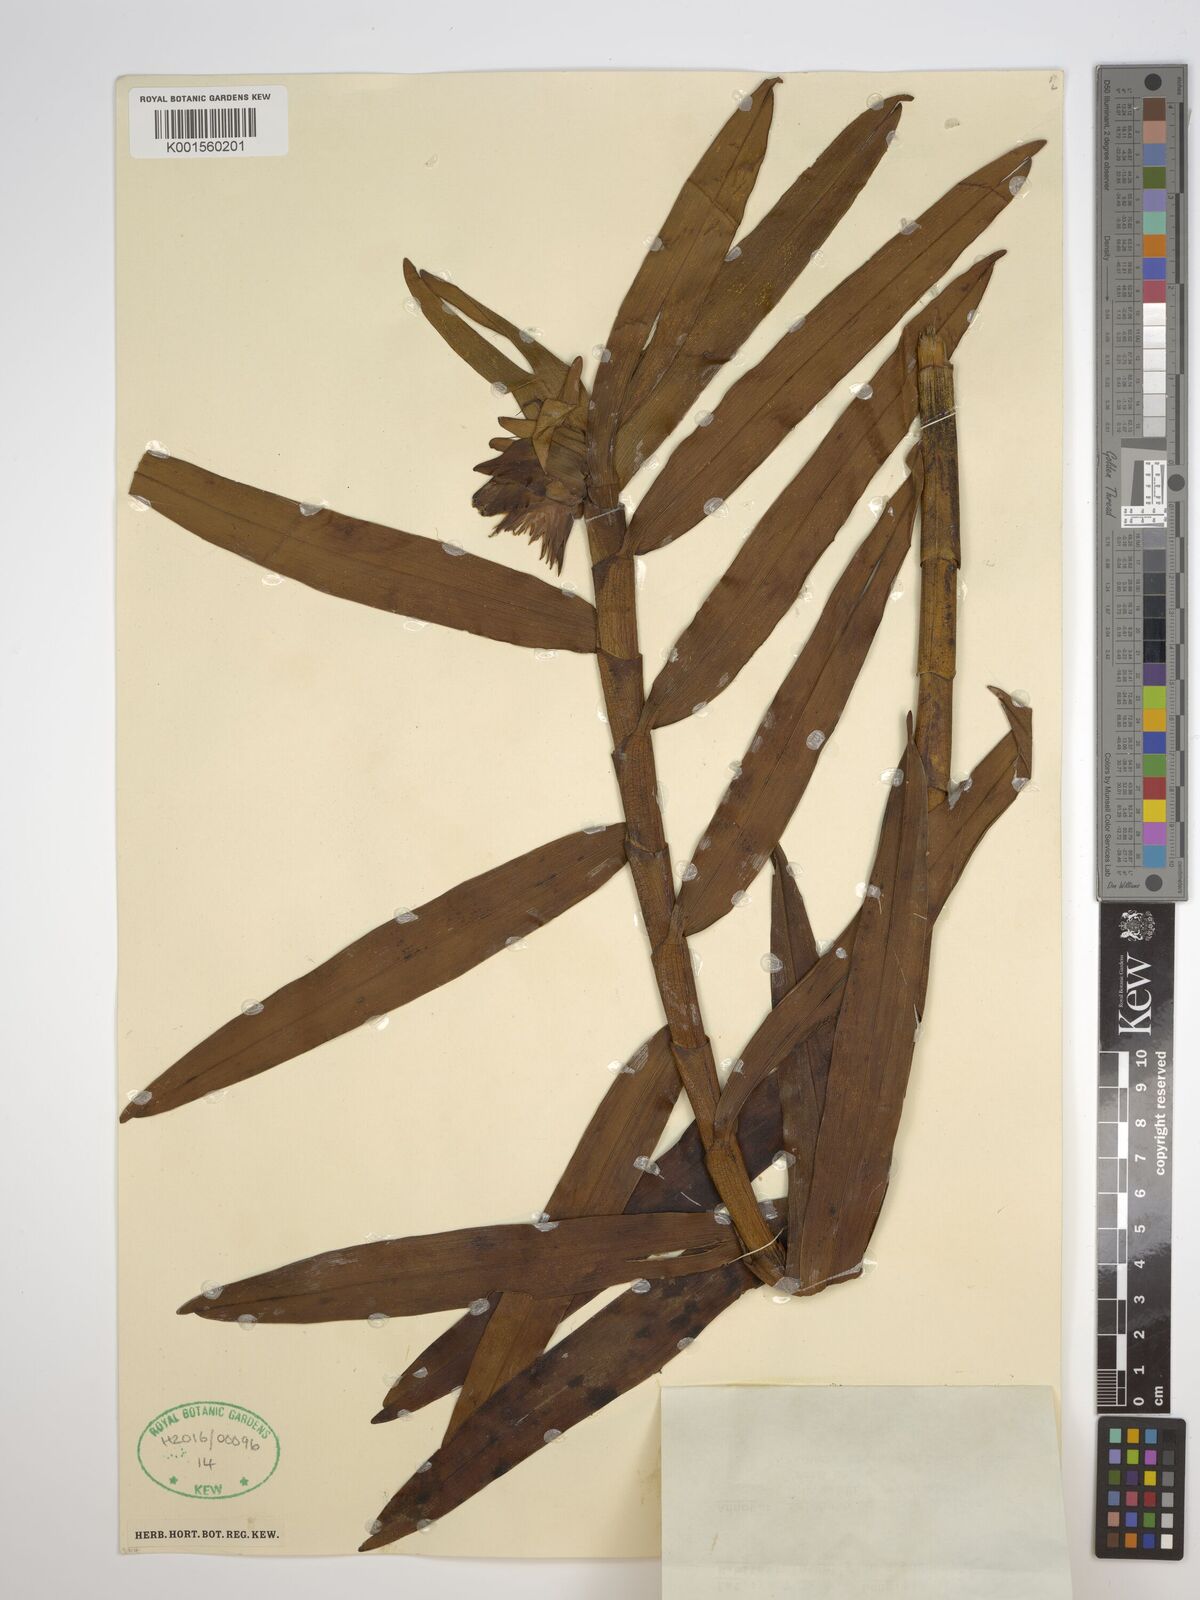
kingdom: Plantae
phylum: Tracheophyta
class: Liliopsida
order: Asparagales
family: Orchidaceae
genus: Glomera
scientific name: Glomera
